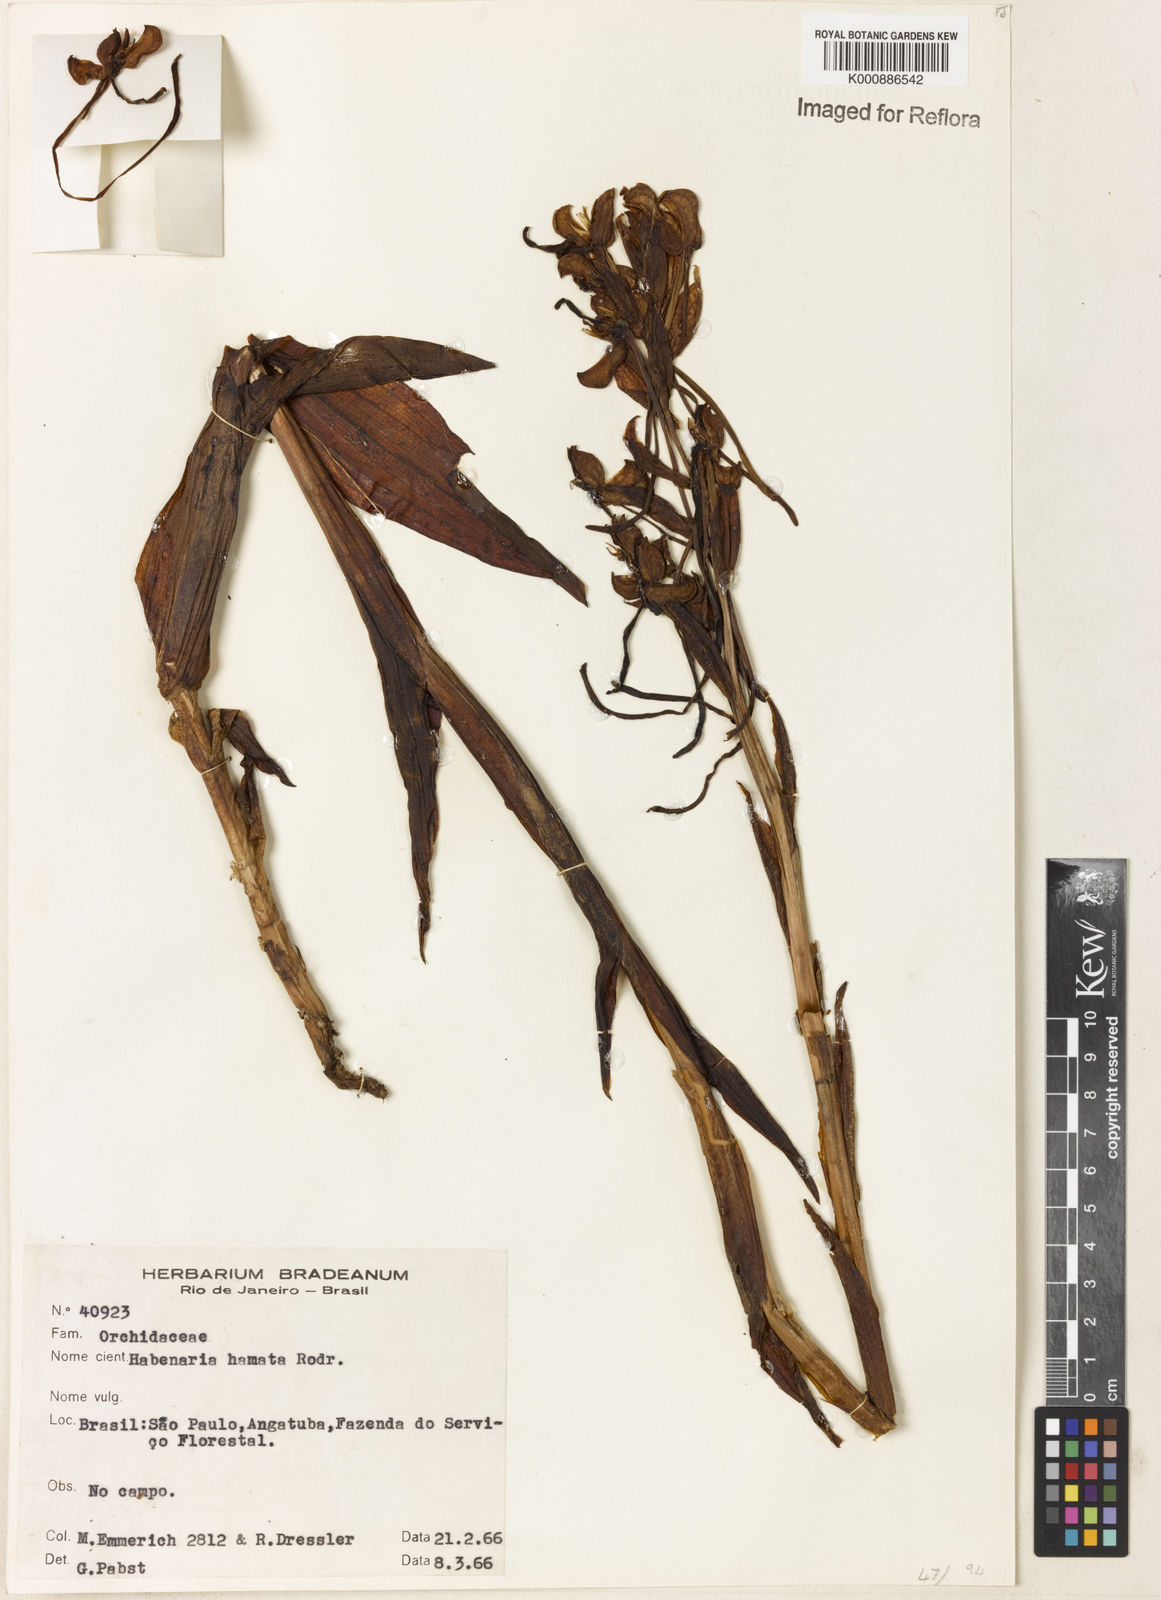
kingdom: Plantae
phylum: Tracheophyta
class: Liliopsida
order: Asparagales
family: Orchidaceae
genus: Habenaria
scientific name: Habenaria hamata
